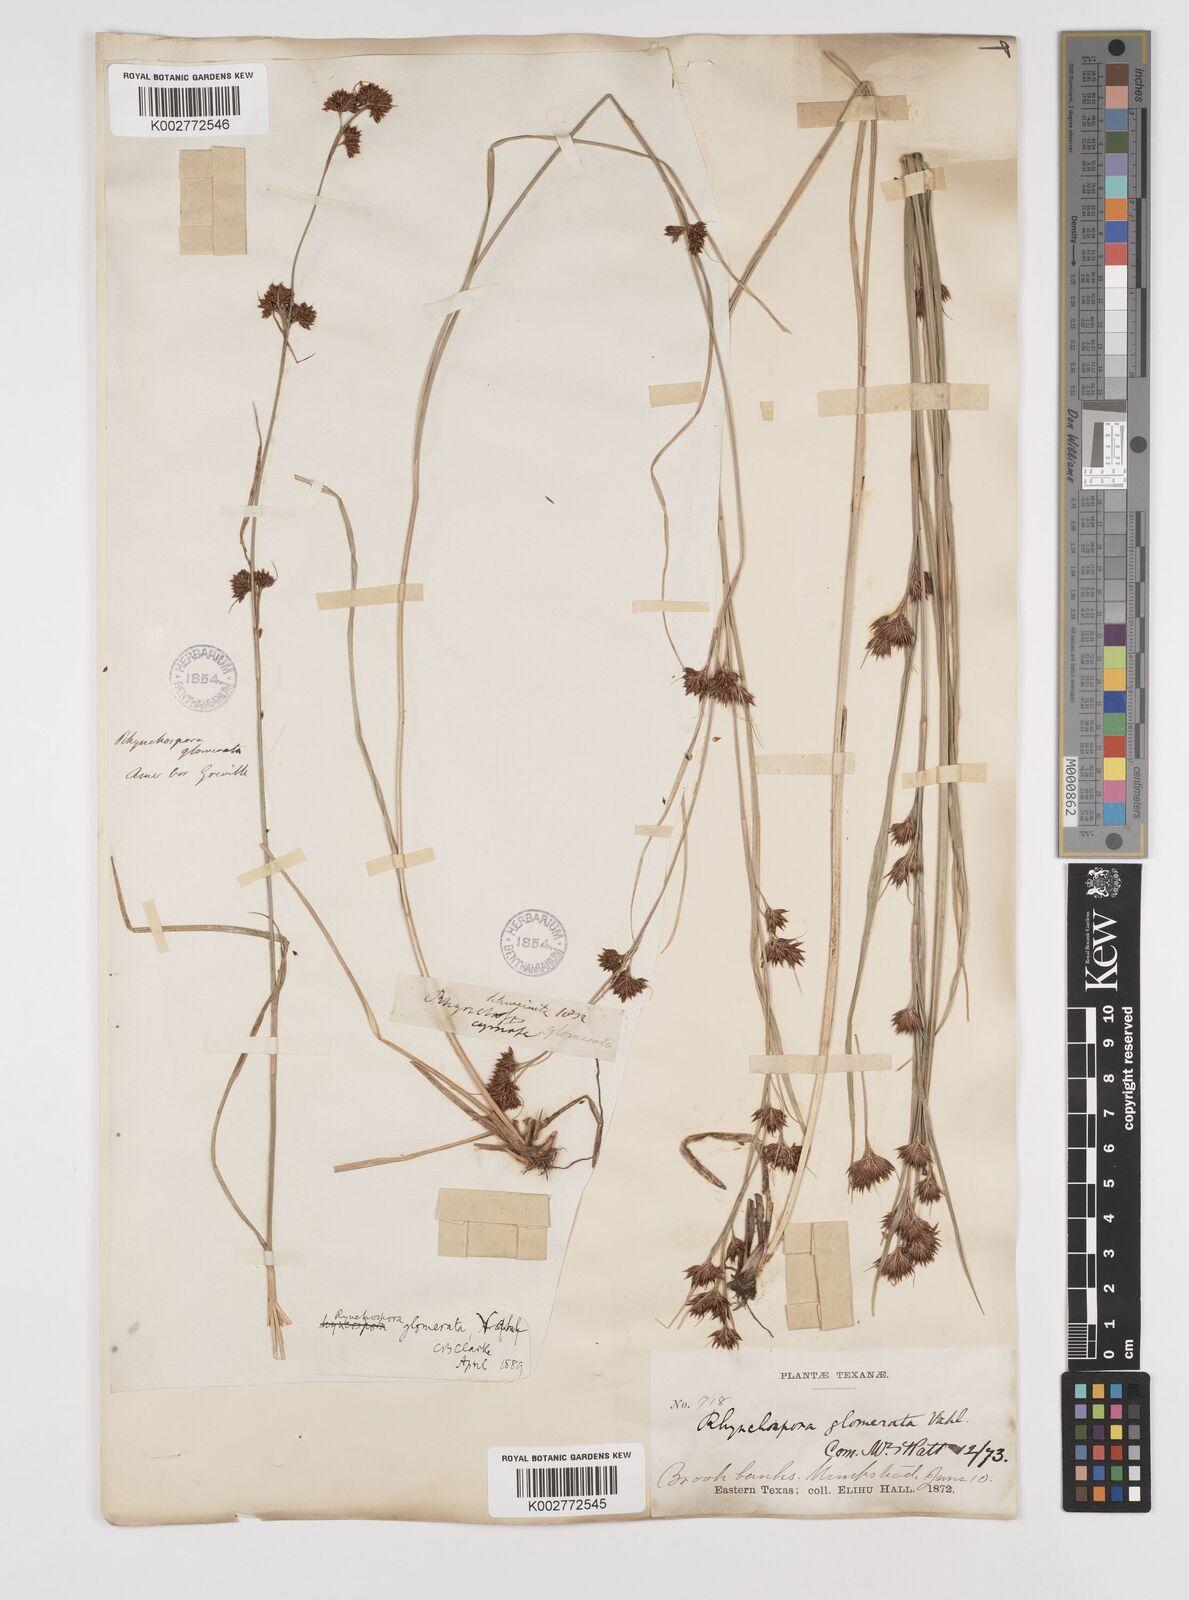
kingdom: Plantae
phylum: Tracheophyta
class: Liliopsida
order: Poales
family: Cyperaceae
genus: Rhynchospora
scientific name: Rhynchospora glomerata
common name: Cluster beak sedge
